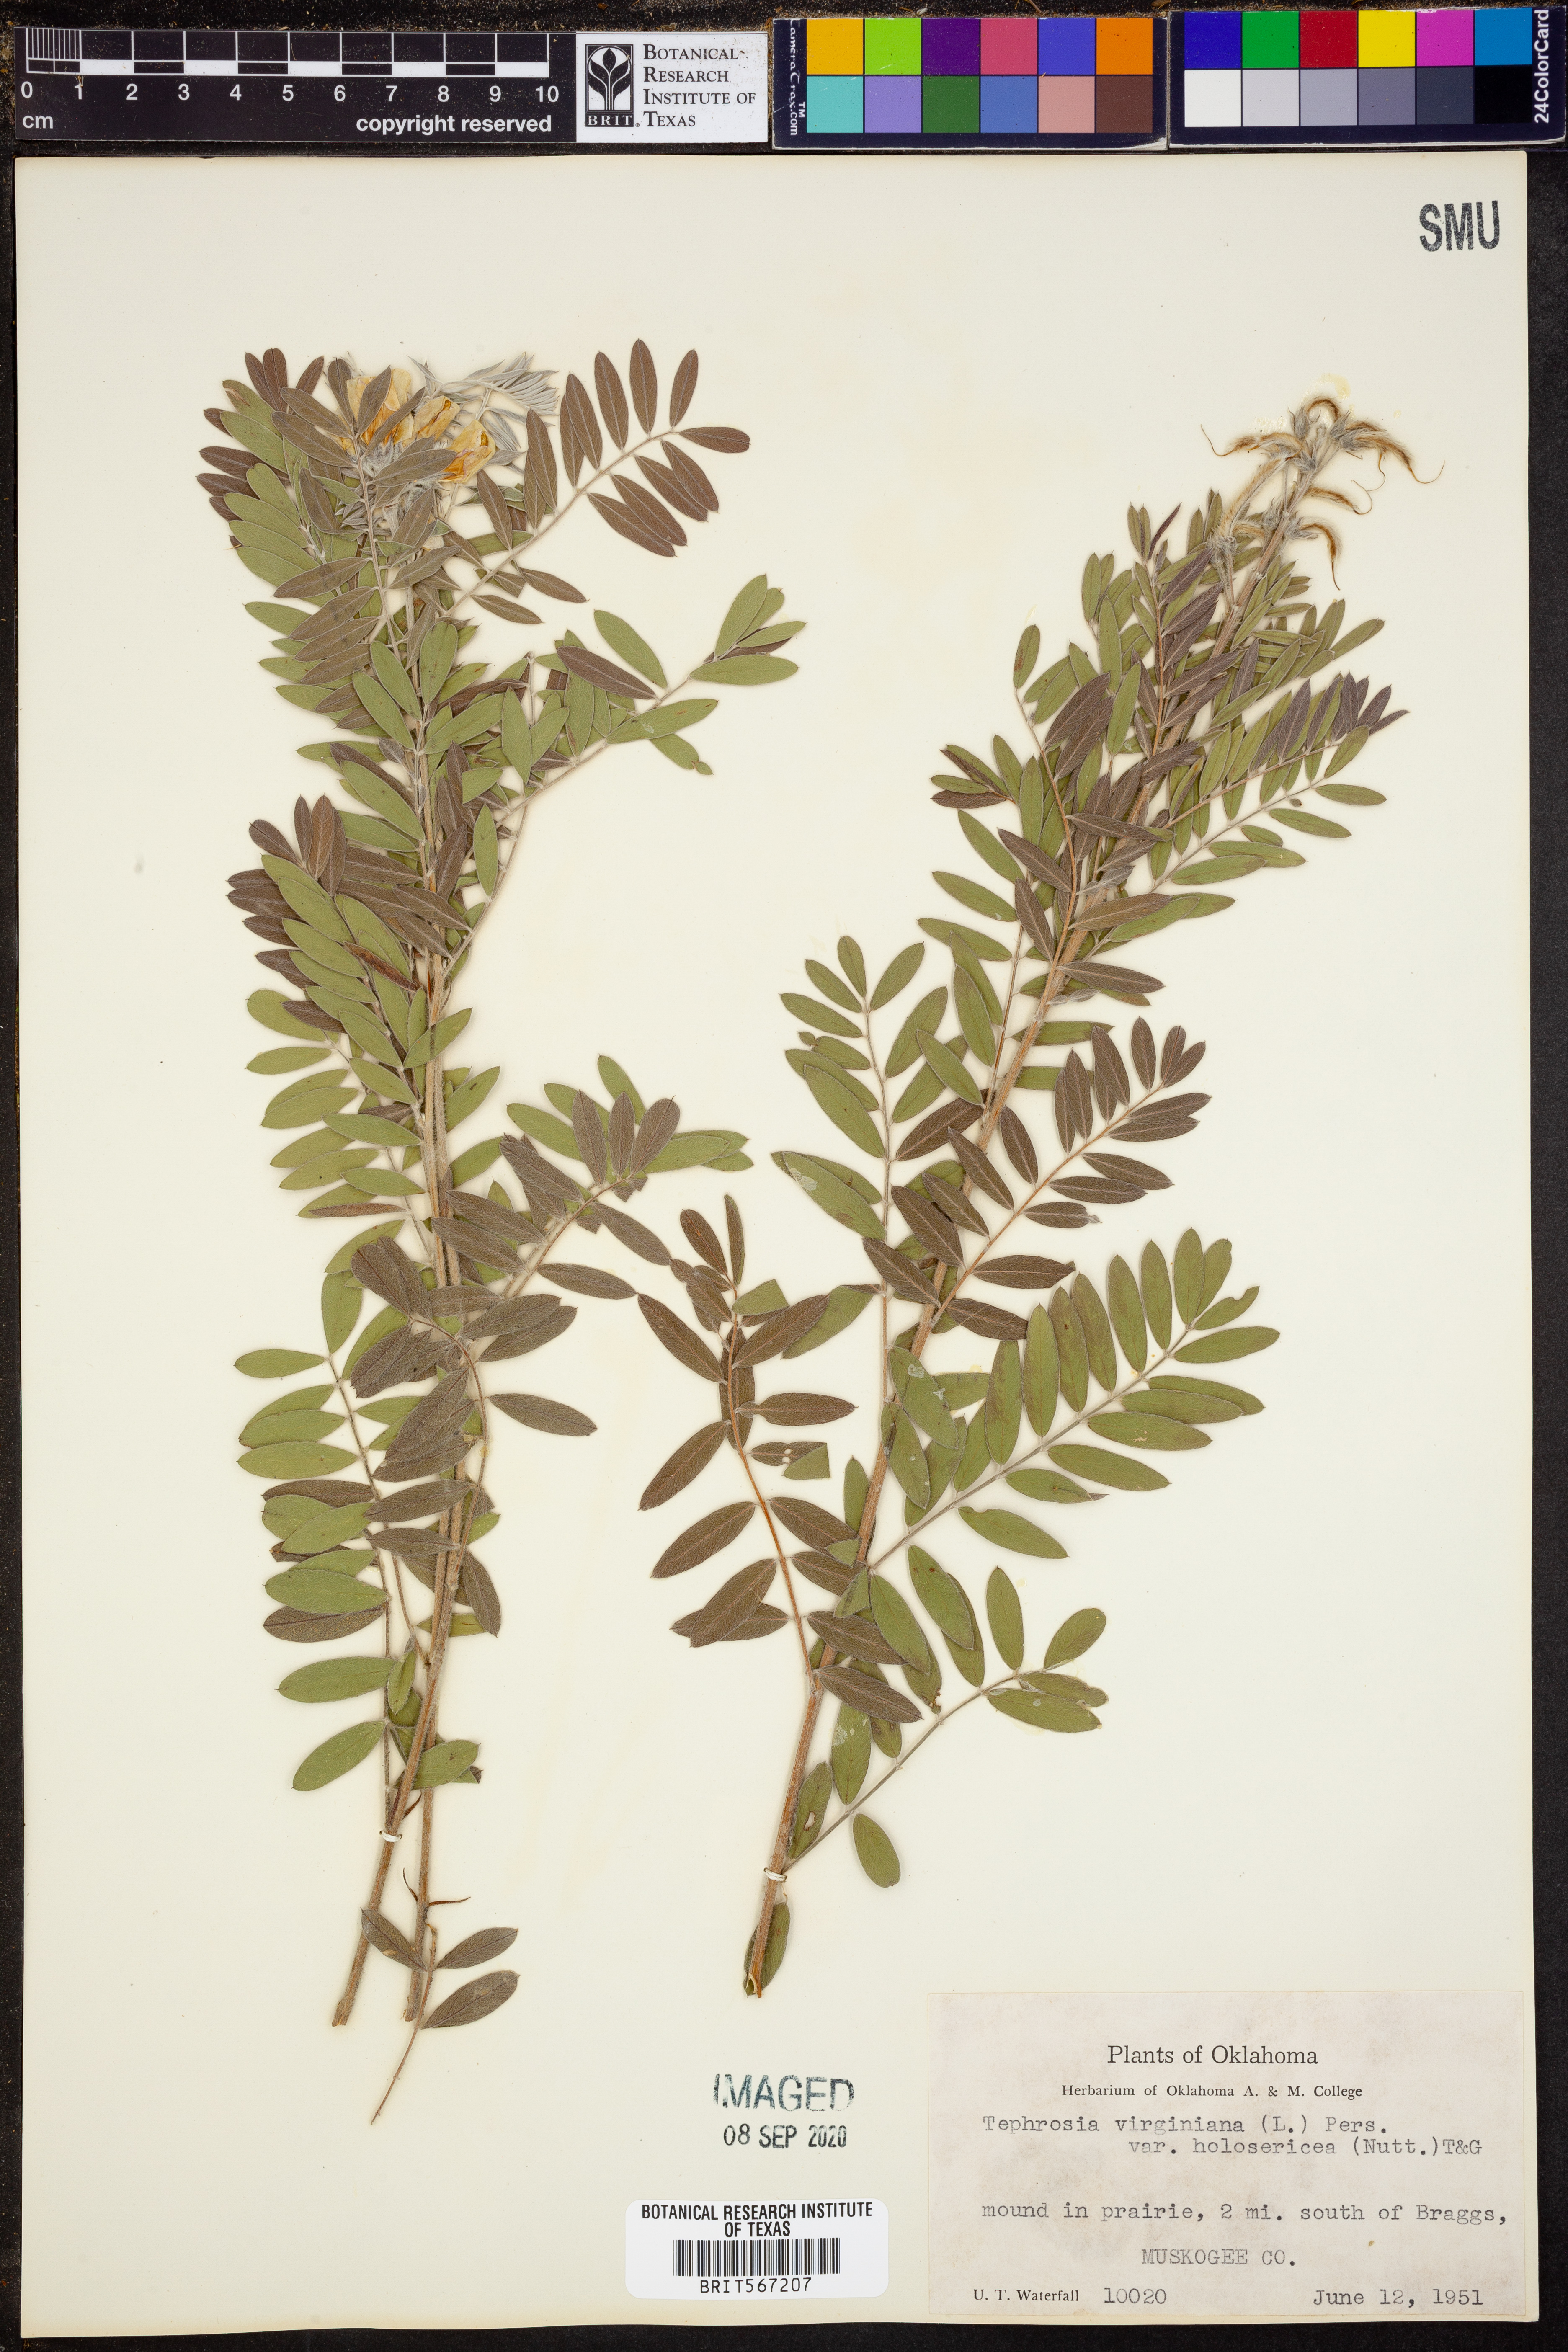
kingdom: Plantae
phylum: Tracheophyta
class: Magnoliopsida
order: Fabales
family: Fabaceae
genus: Tephrosia
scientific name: Tephrosia virginiana
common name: Rabbit-pea
